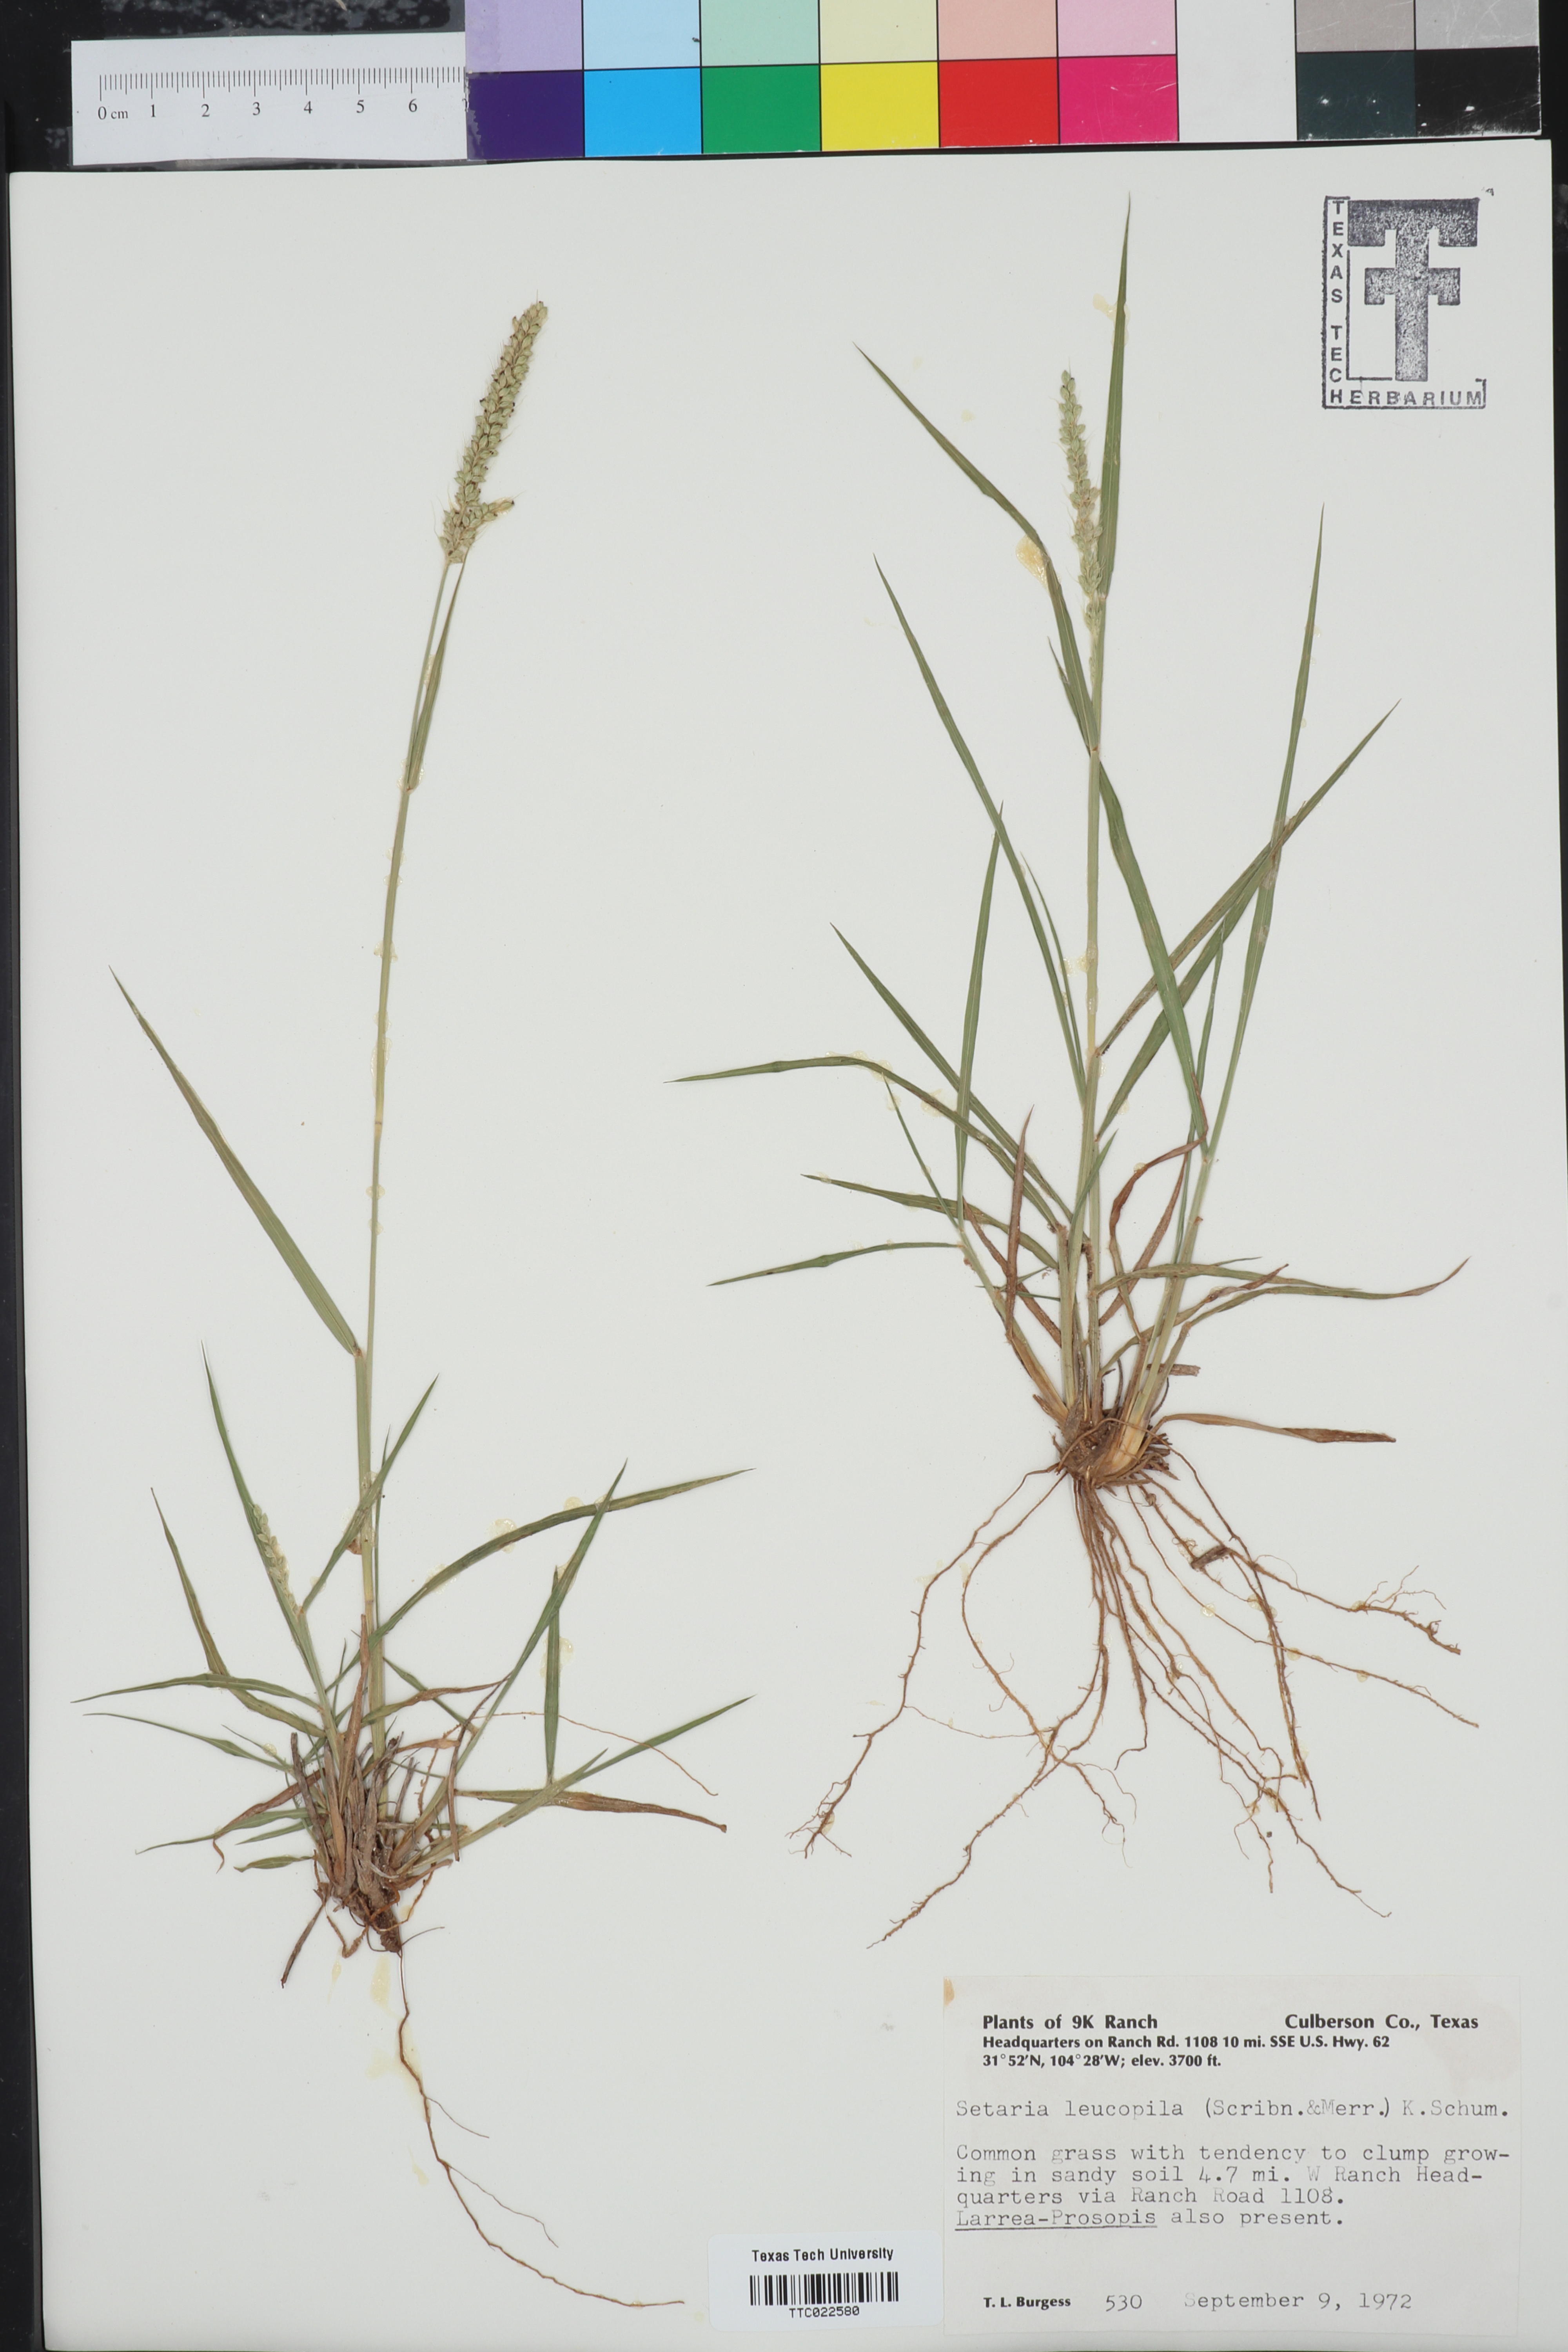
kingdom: Plantae
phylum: Tracheophyta
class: Liliopsida
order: Poales
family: Poaceae
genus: Setaria
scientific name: Setaria leucopila
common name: Plains bristle grass
